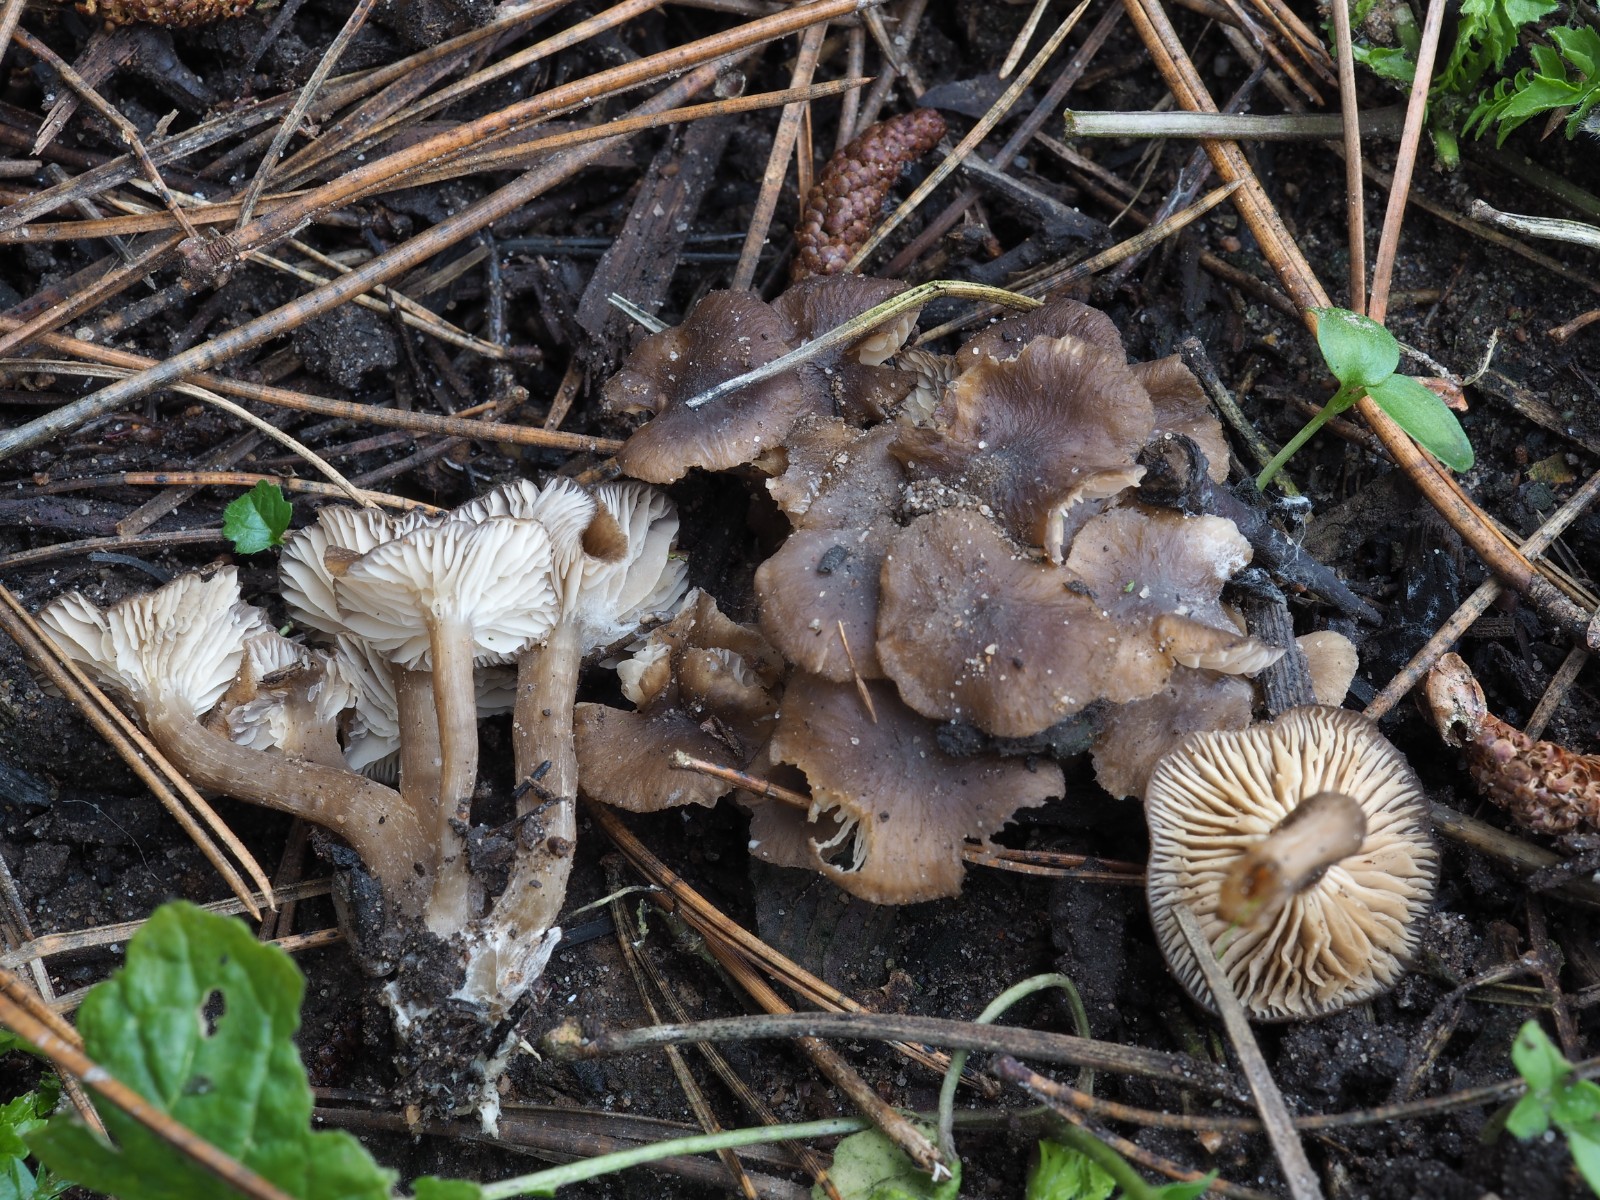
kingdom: Fungi
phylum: Basidiomycota
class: Agaricomycetes
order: Agaricales
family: Lyophyllaceae
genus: Tephrocybe
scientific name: Tephrocybe anthracophila
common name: svedje-gråblad
